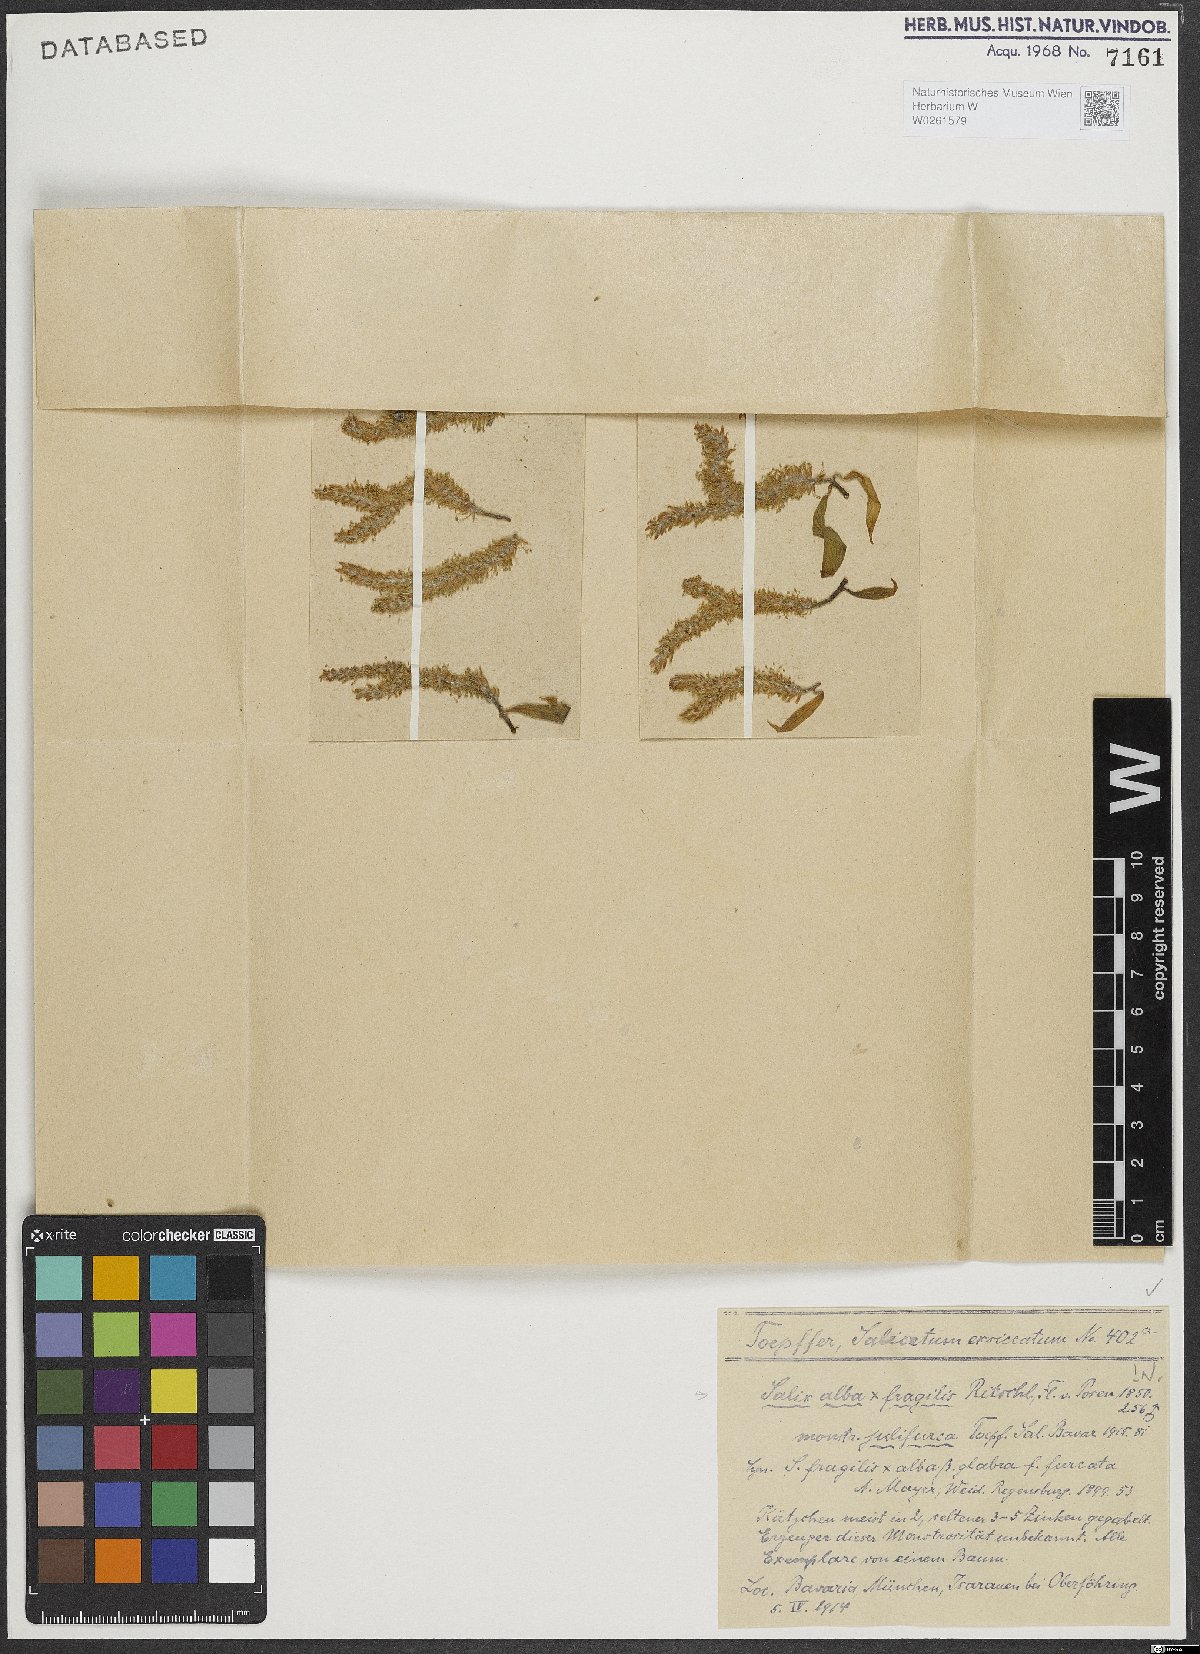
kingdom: Plantae
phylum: Tracheophyta
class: Magnoliopsida
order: Malpighiales
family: Salicaceae
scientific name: Salicaceae
